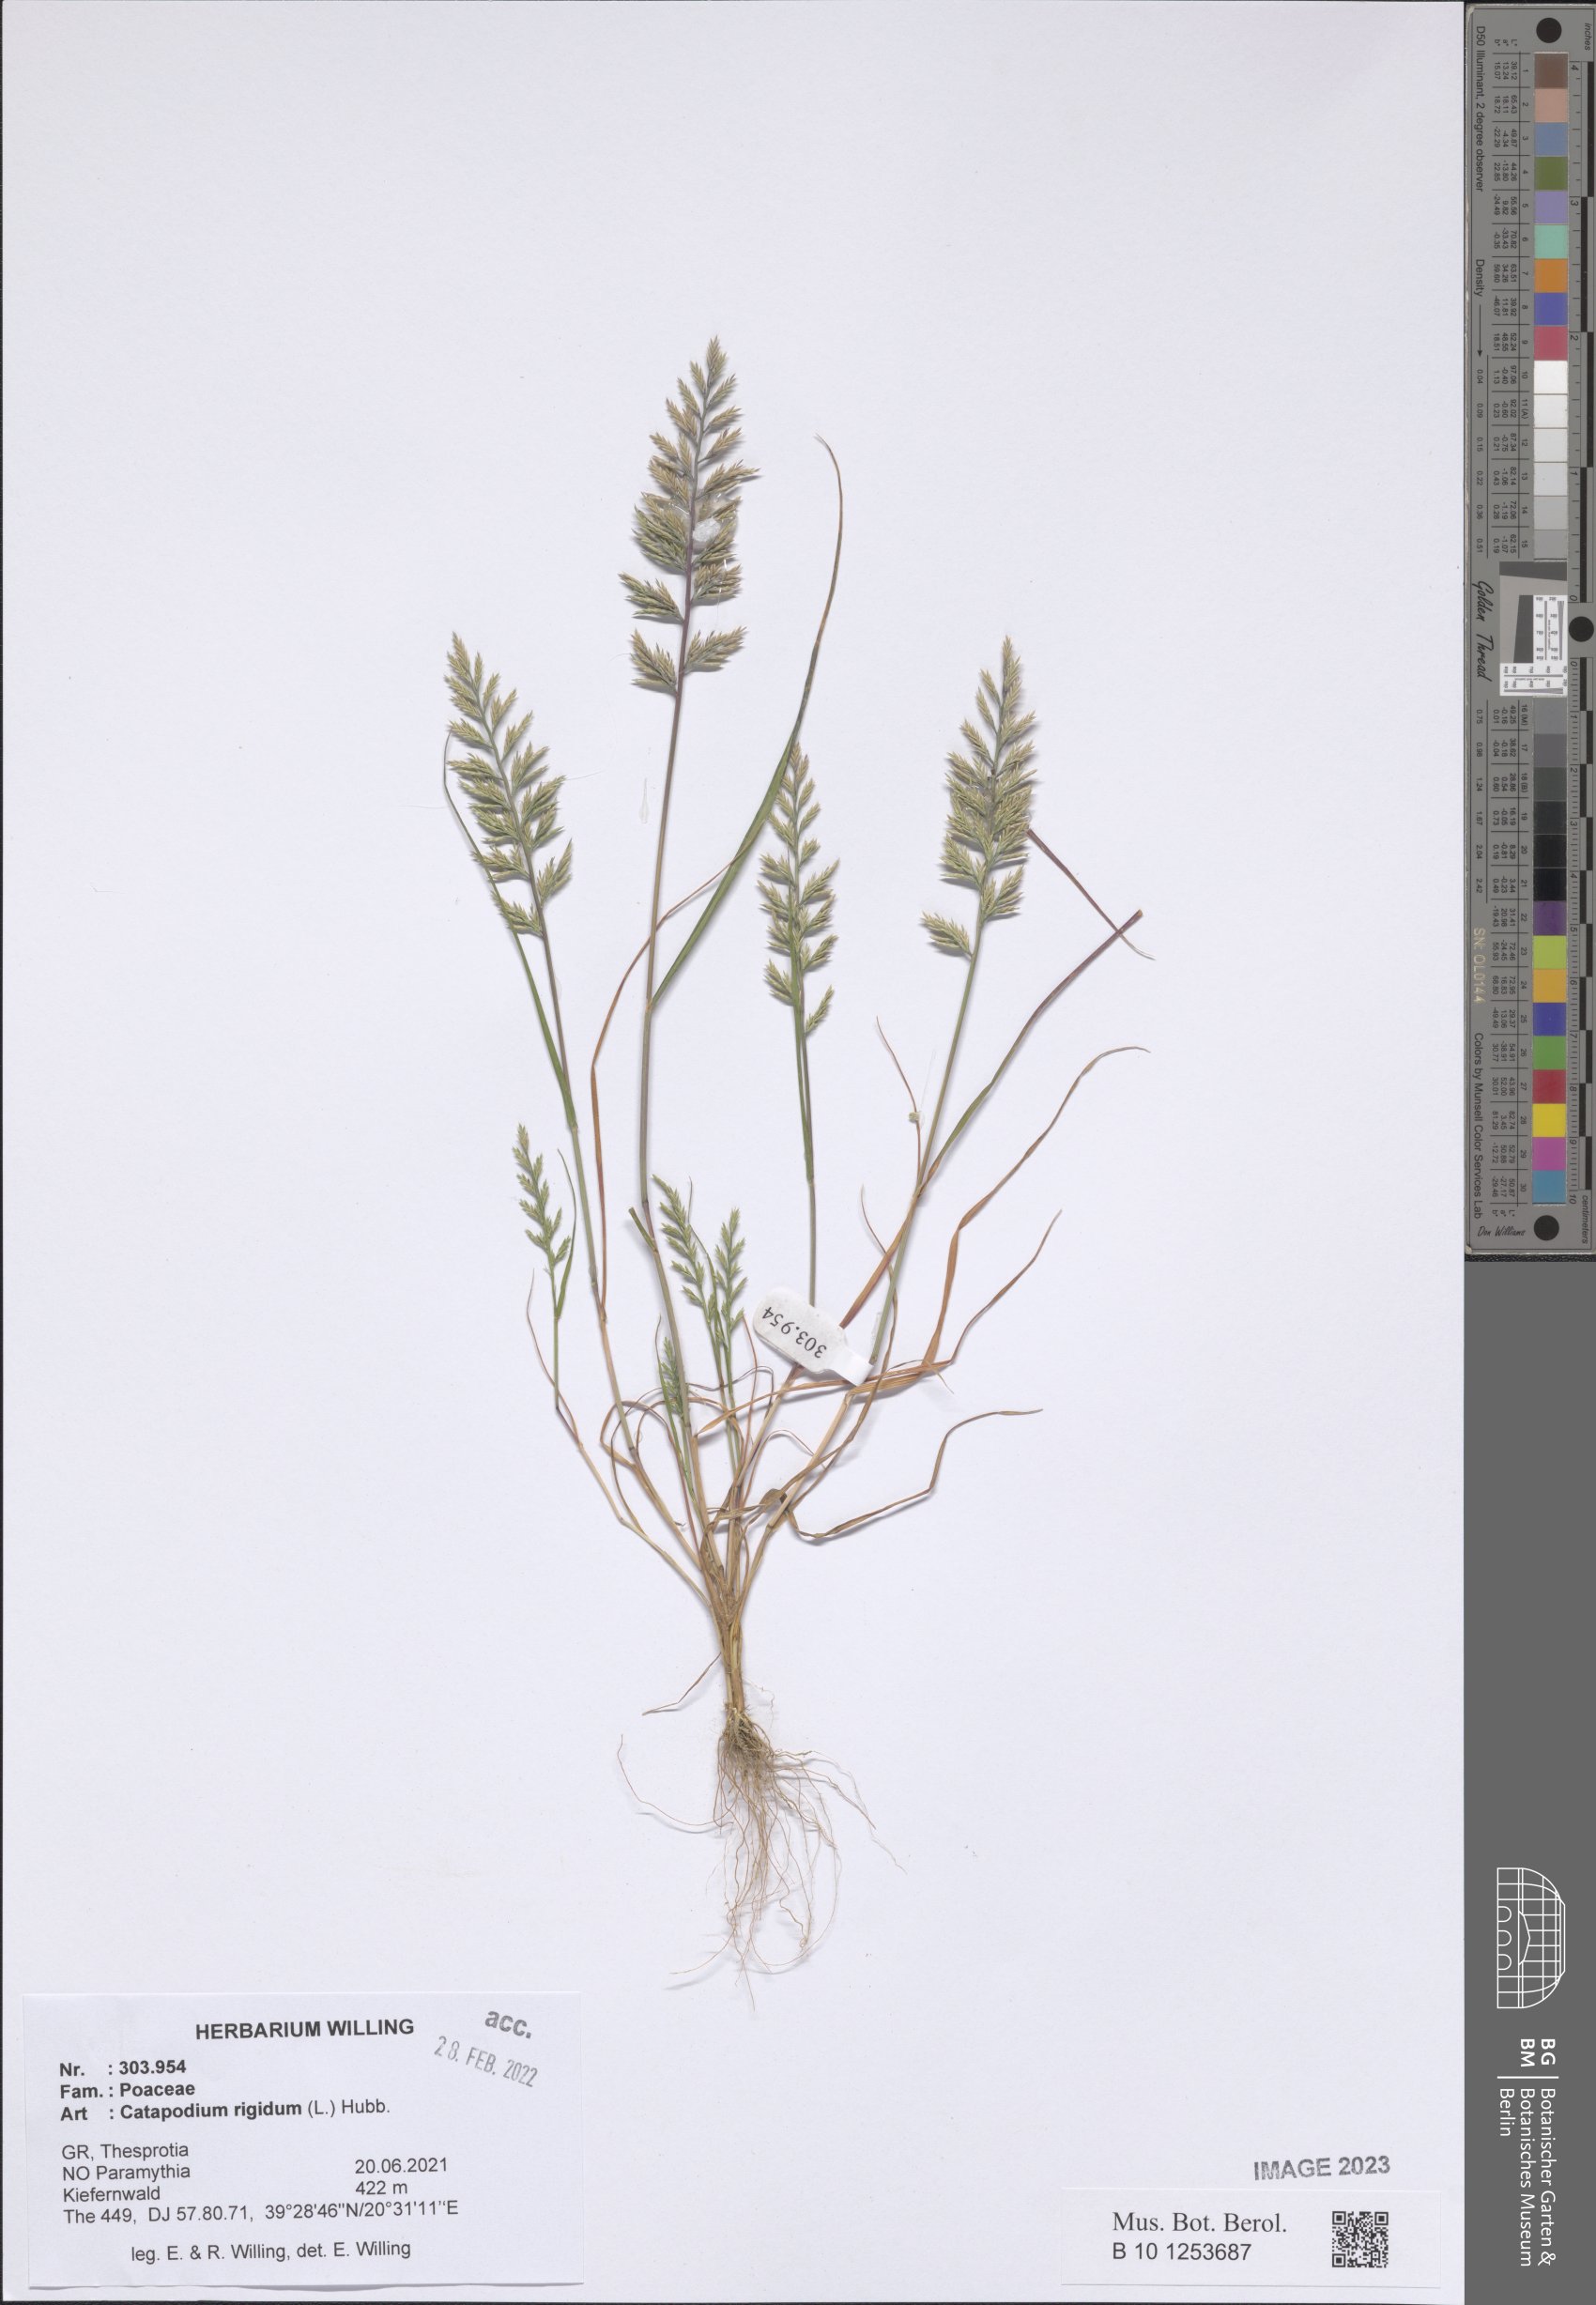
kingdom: Plantae
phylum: Tracheophyta
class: Liliopsida
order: Poales
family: Poaceae
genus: Catapodium
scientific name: Catapodium rigidum
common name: Fern-grass
